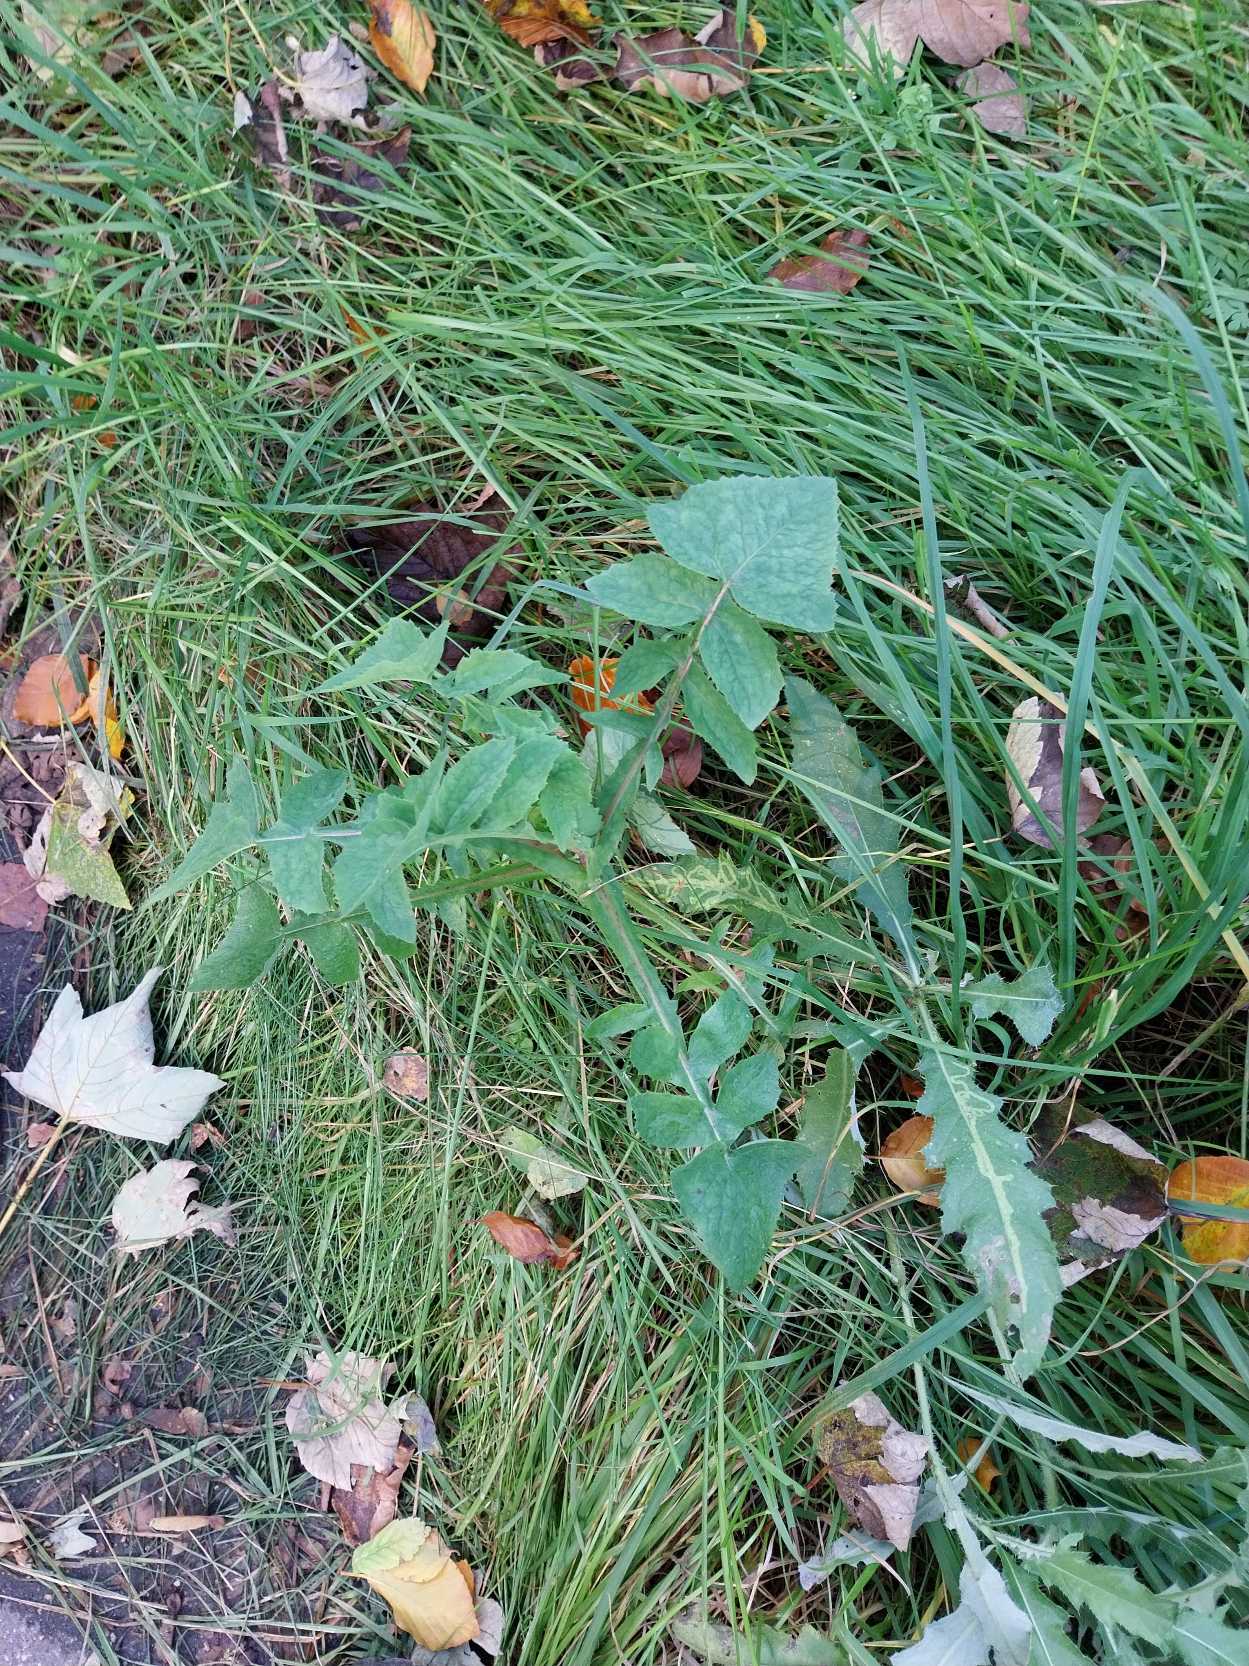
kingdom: Plantae
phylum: Tracheophyta
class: Magnoliopsida
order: Asterales
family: Asteraceae
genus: Sonchus
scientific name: Sonchus oleraceus
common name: Almindelig svinemælk
